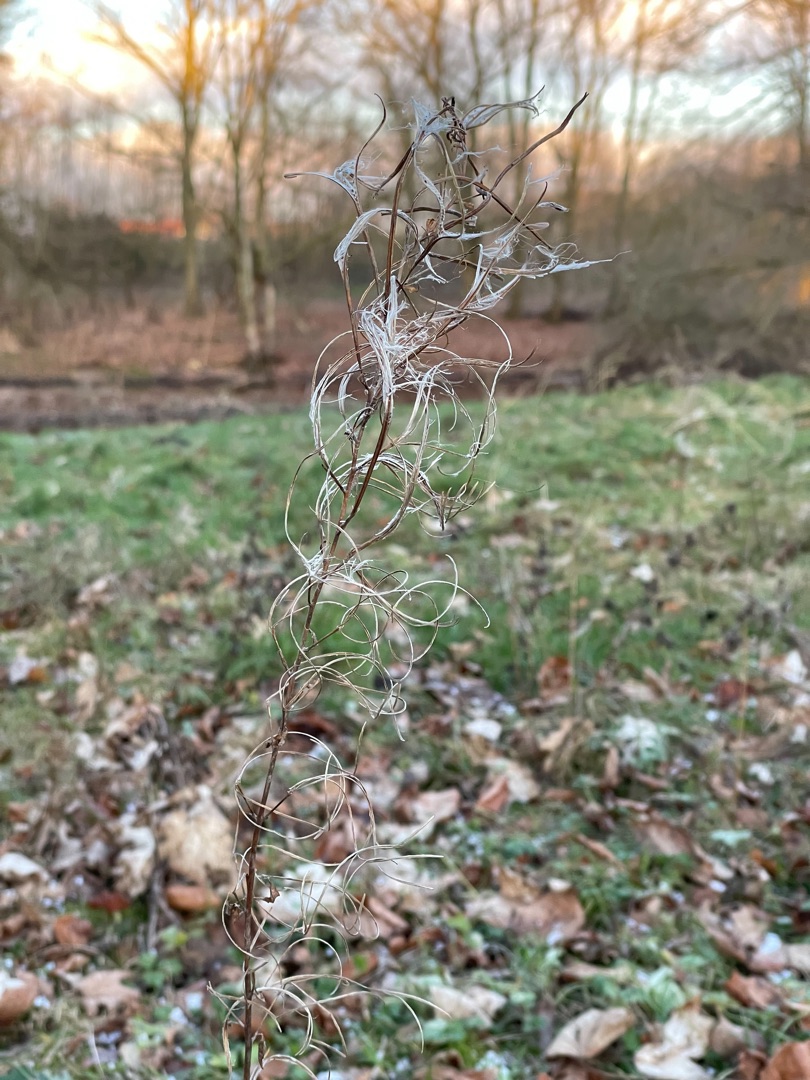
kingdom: Plantae
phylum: Tracheophyta
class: Magnoliopsida
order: Myrtales
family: Onagraceae
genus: Epilobium
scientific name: Epilobium hirsutum
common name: Lådden dueurt
